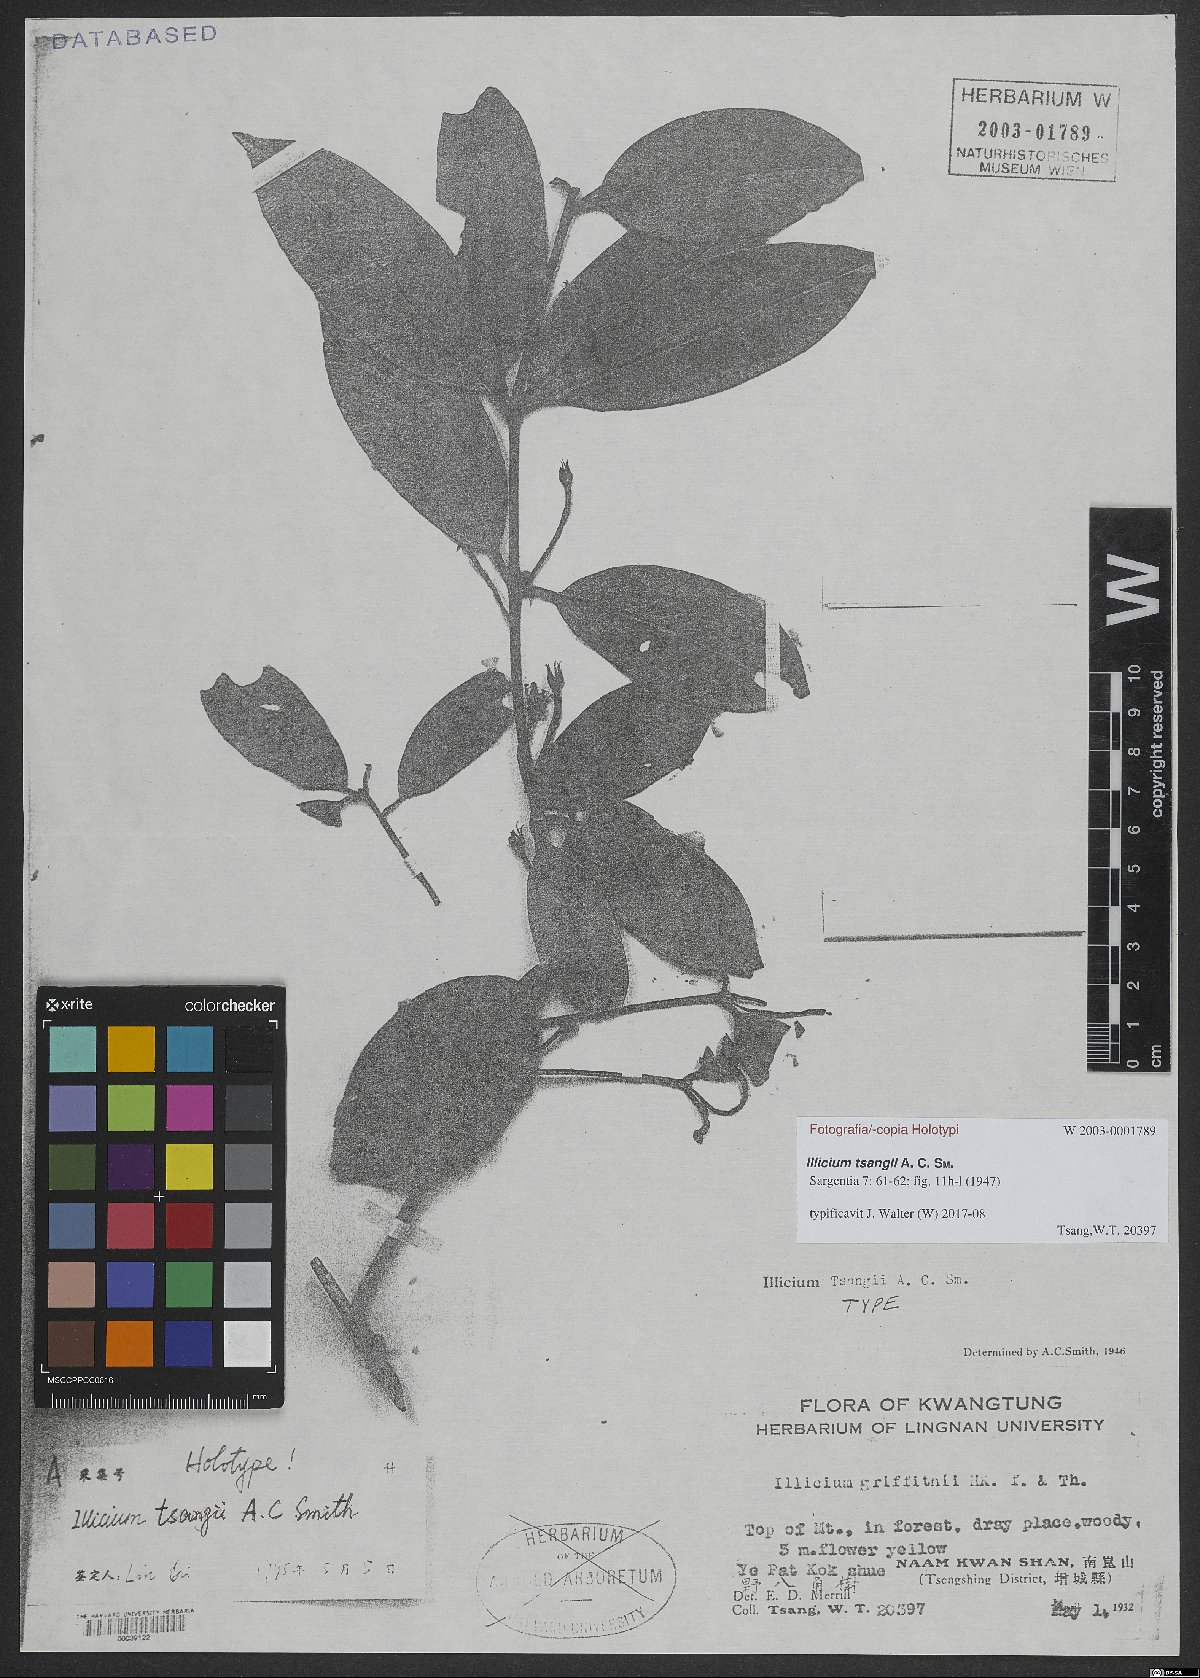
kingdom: Plantae
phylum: Tracheophyta
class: Magnoliopsida
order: Austrobaileyales
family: Schisandraceae
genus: Illicium
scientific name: Illicium micranthum
